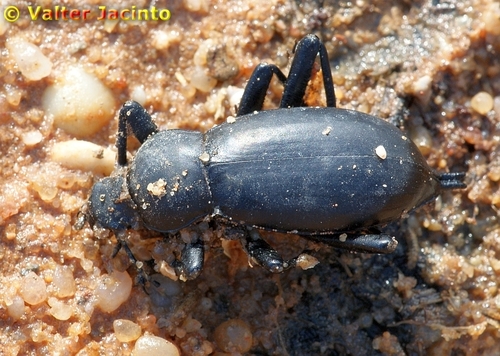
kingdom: Animalia
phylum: Arthropoda
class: Insecta
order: Coleoptera
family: Tenebrionidae
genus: Blaps
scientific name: Blaps lusitanica
